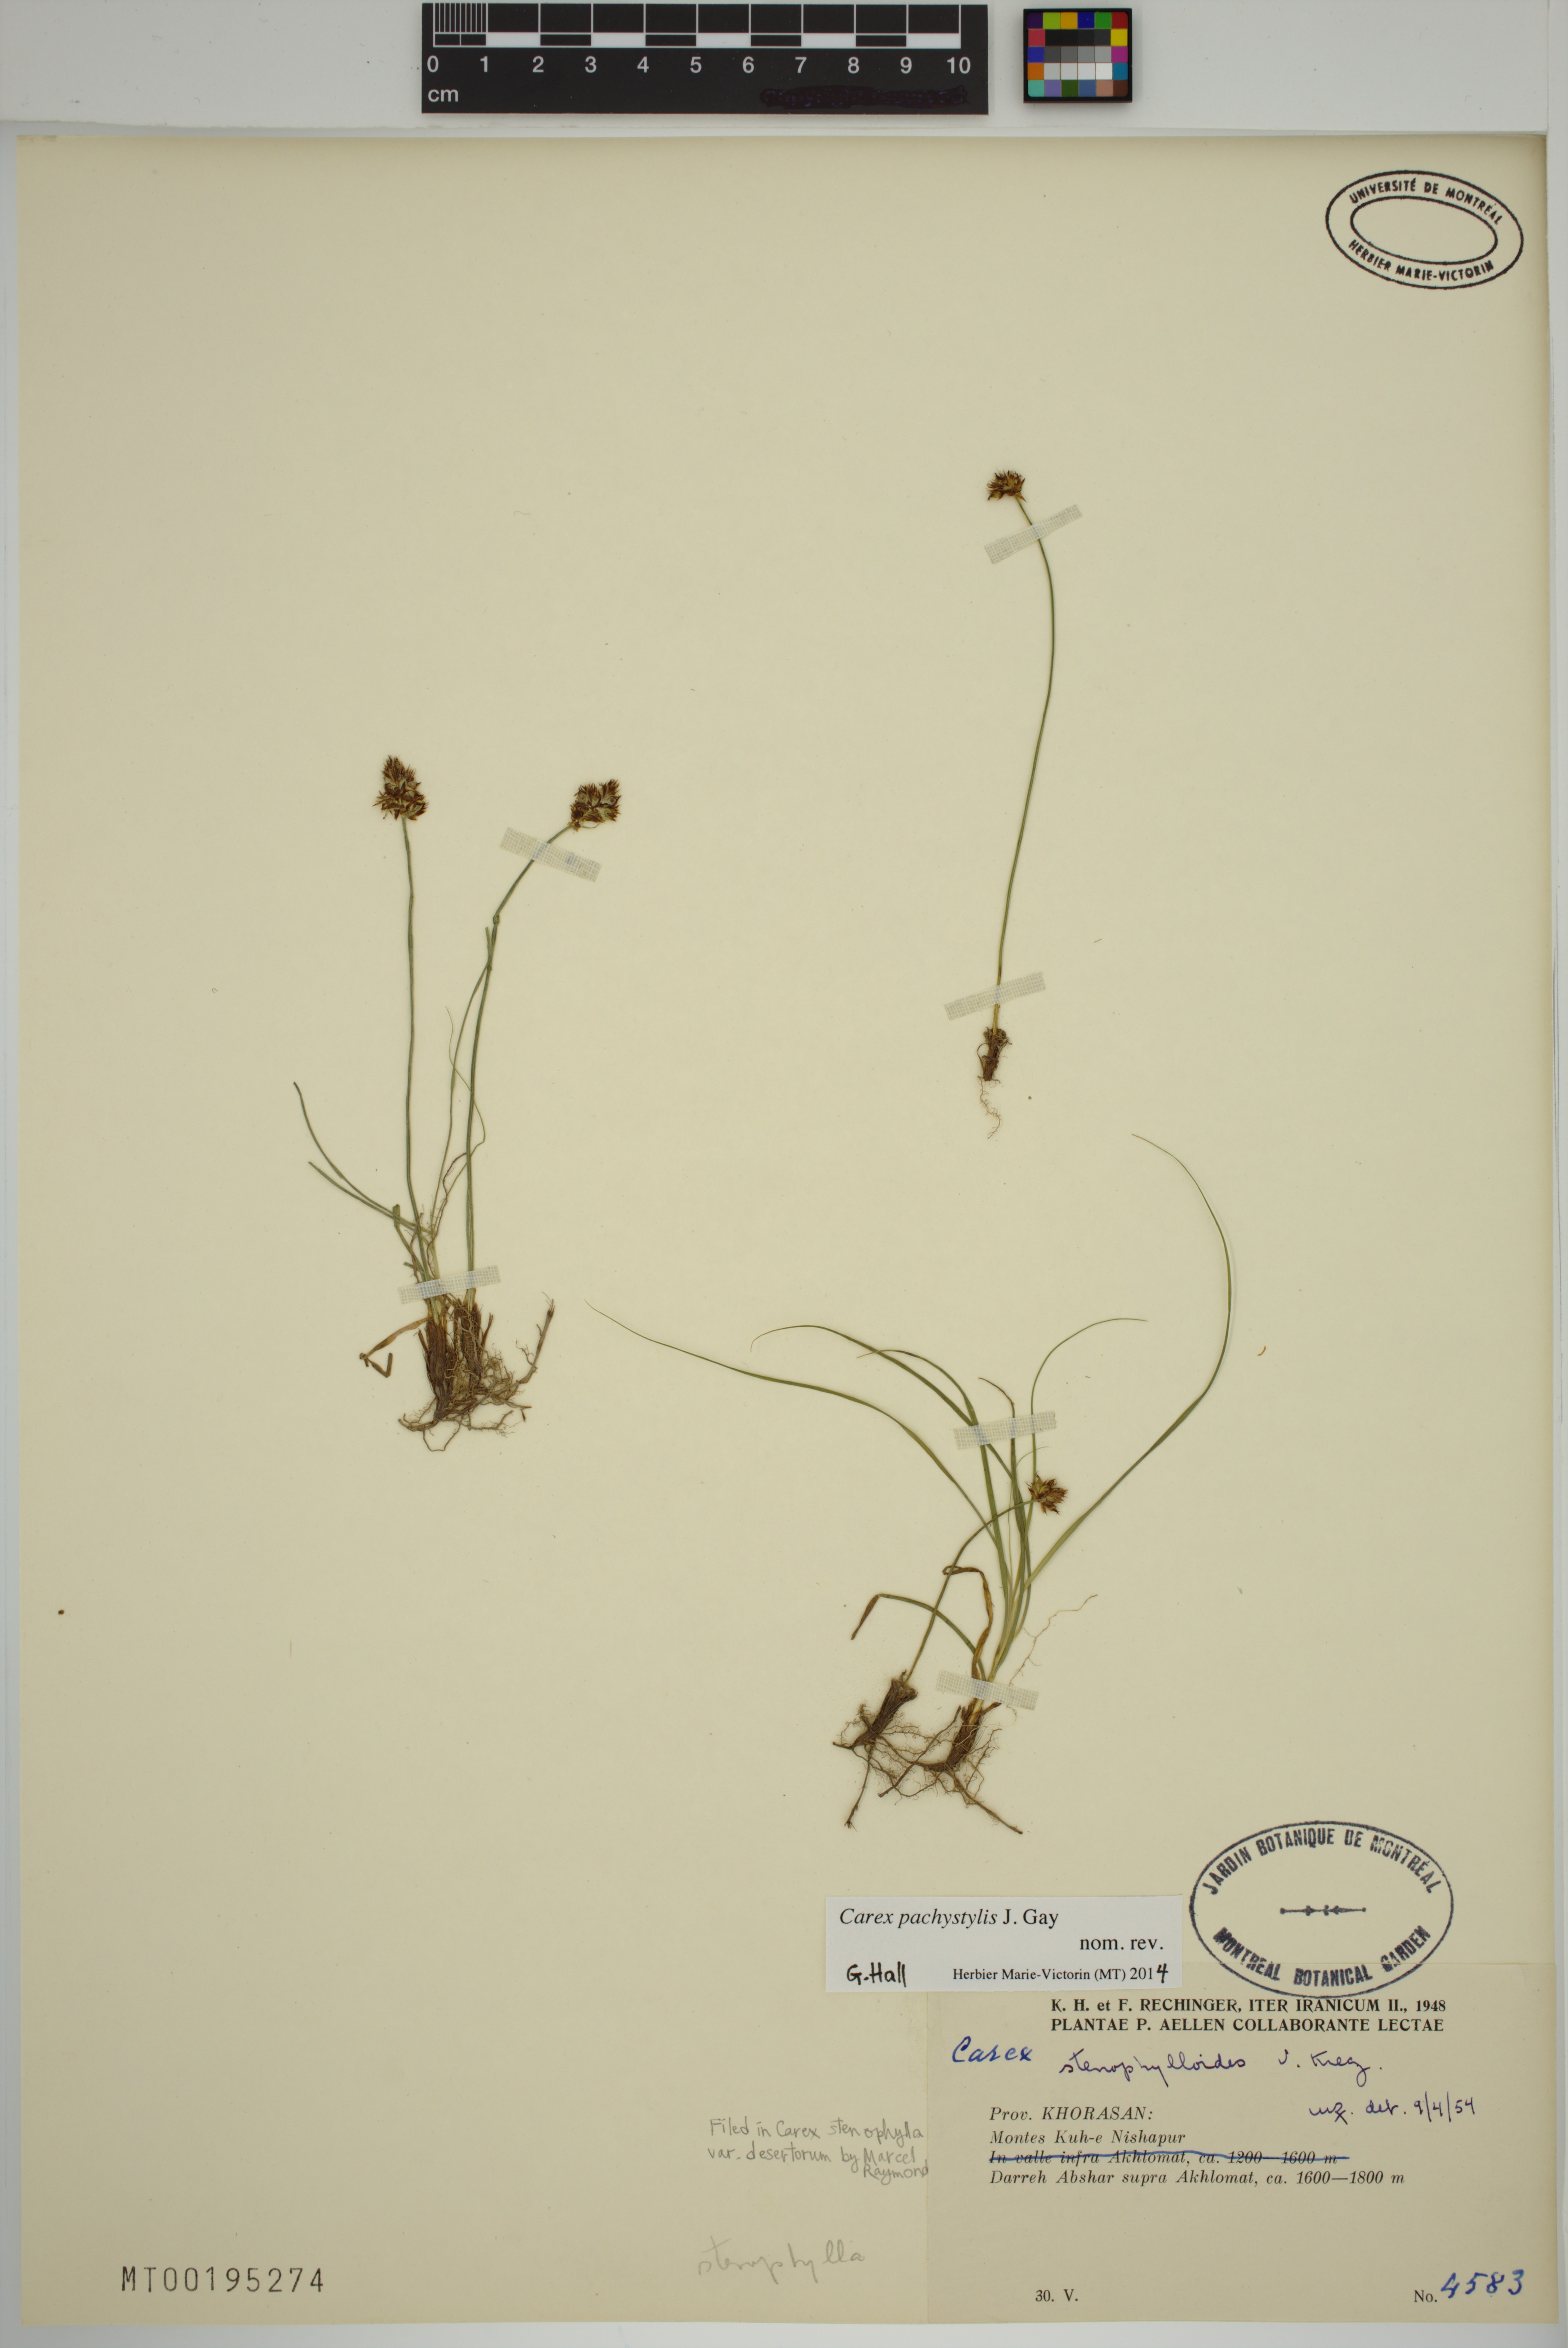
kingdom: Plantae
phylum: Tracheophyta
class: Liliopsida
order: Poales
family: Cyperaceae
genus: Carex
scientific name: Carex pachystylis
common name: Thick-stem sedge
